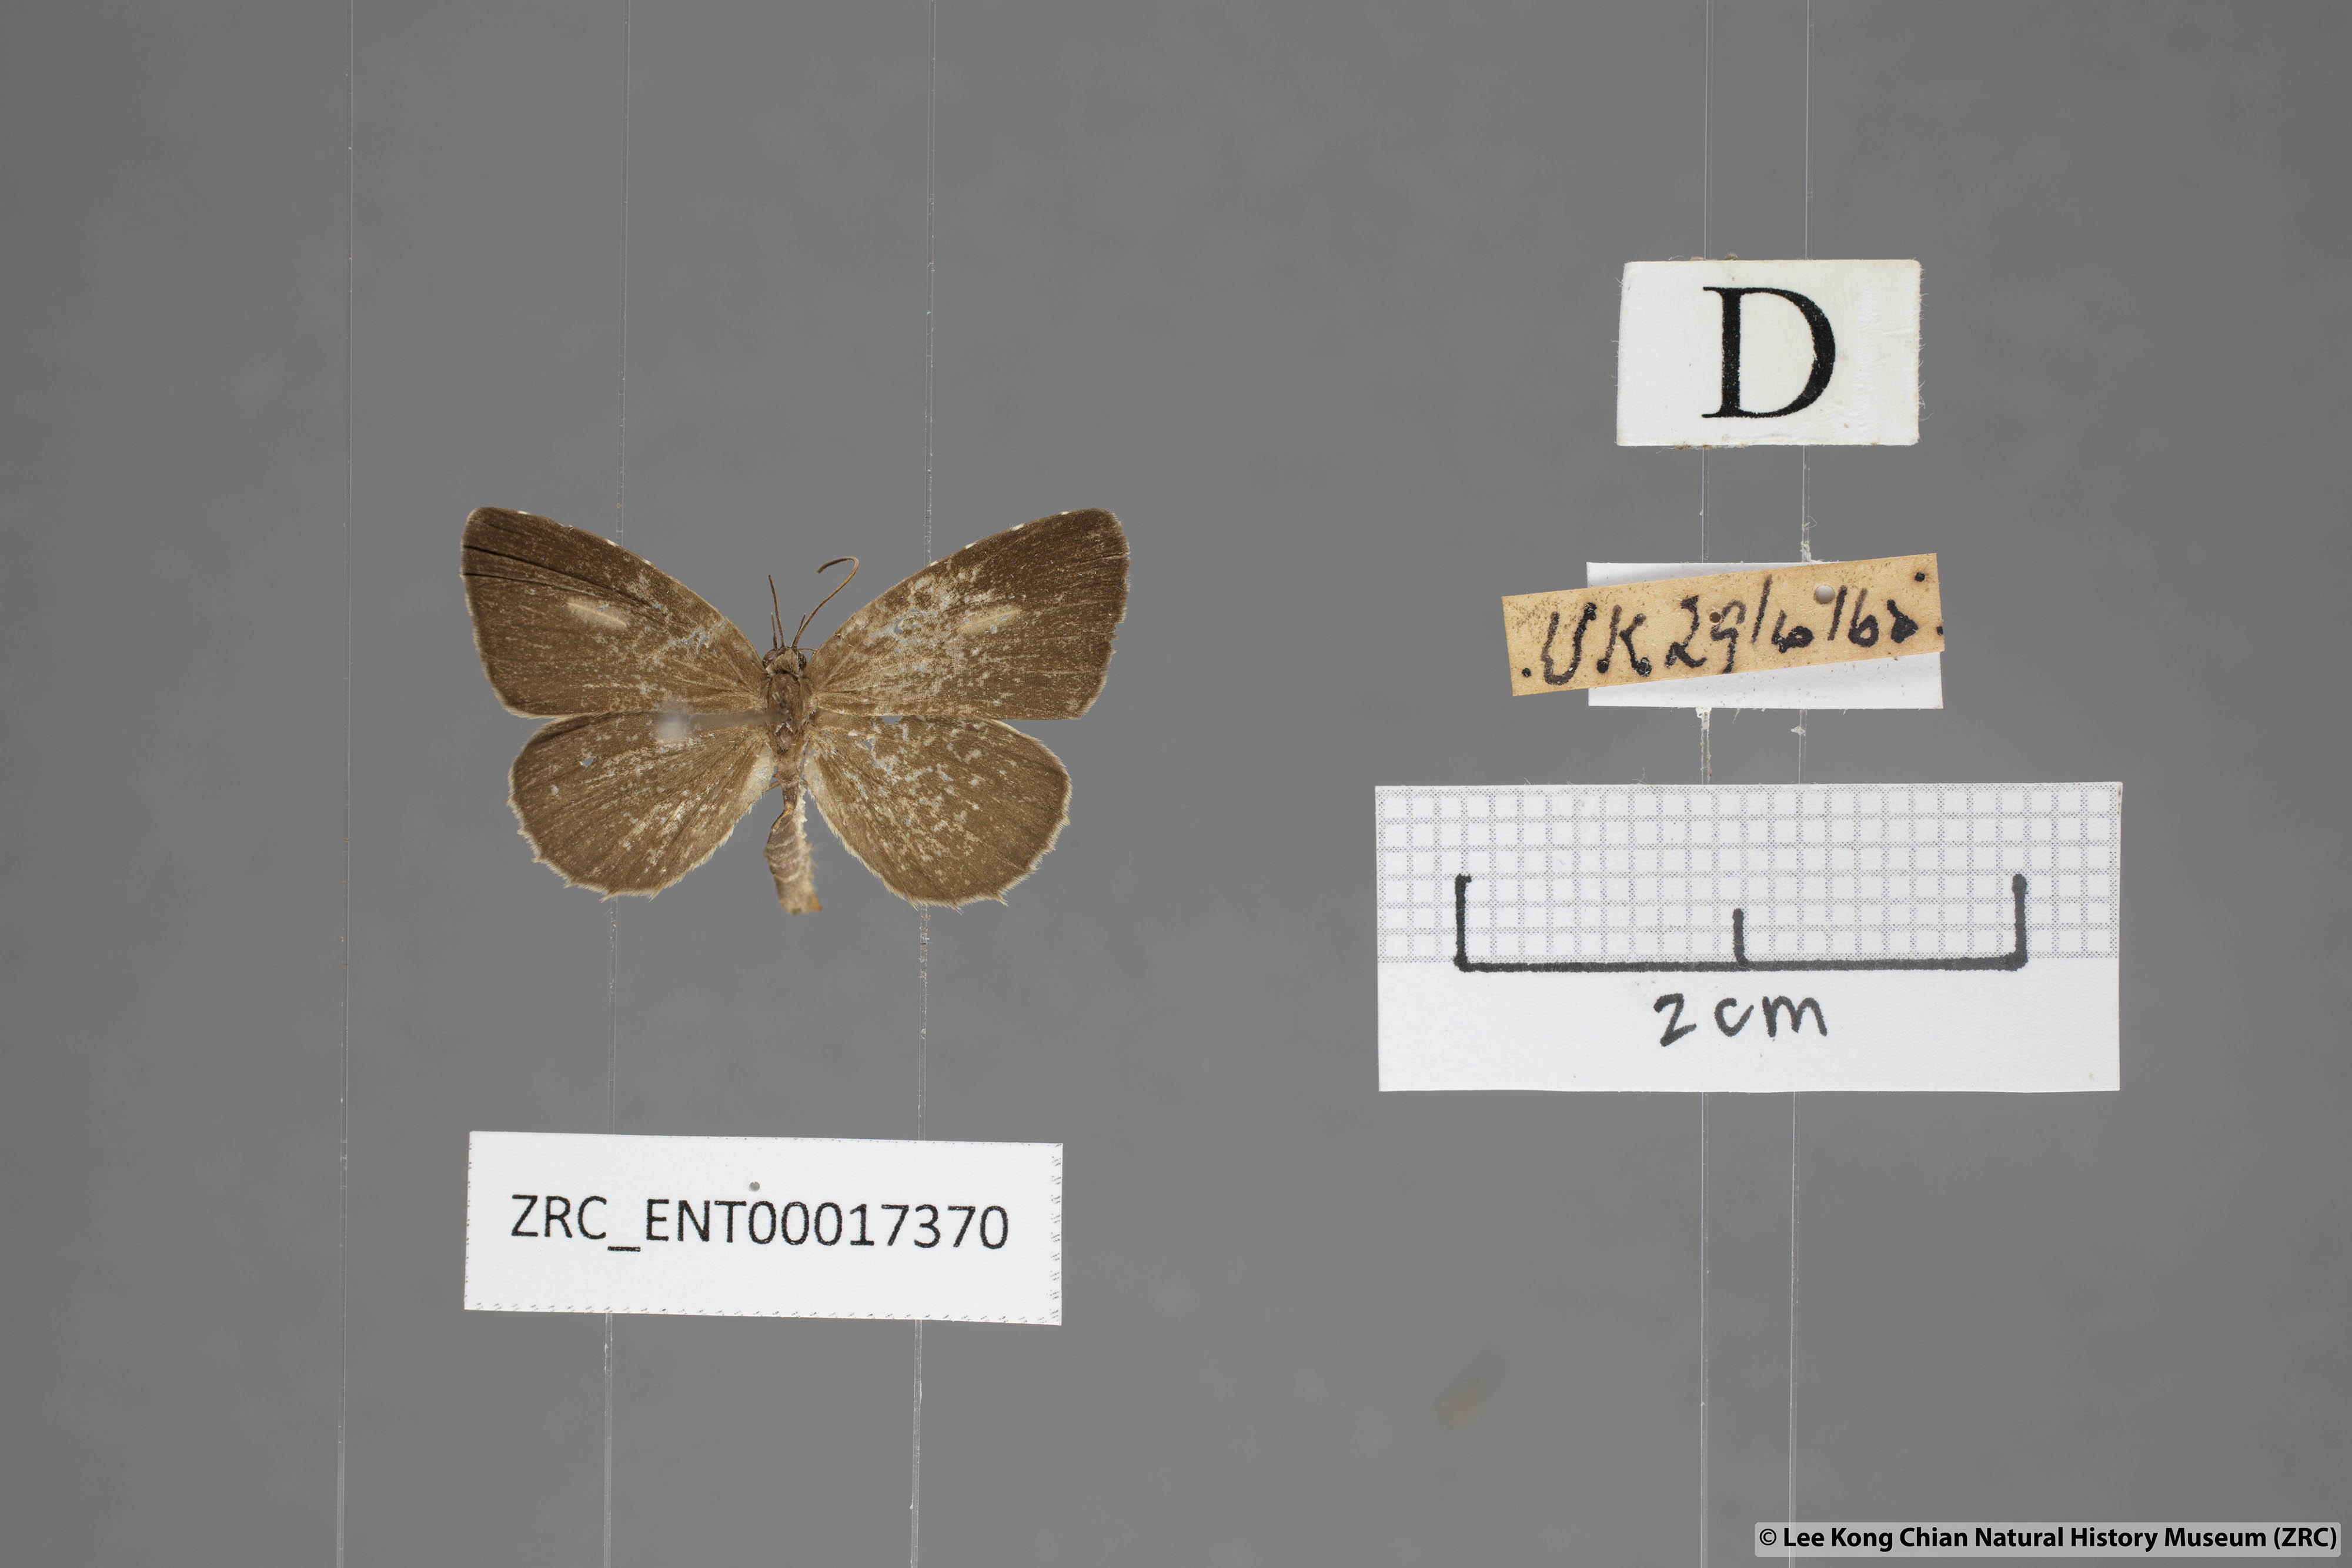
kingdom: Animalia
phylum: Arthropoda
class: Insecta
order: Lepidoptera
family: Lycaenidae
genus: Allotinus
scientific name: Allotinus unicolor
